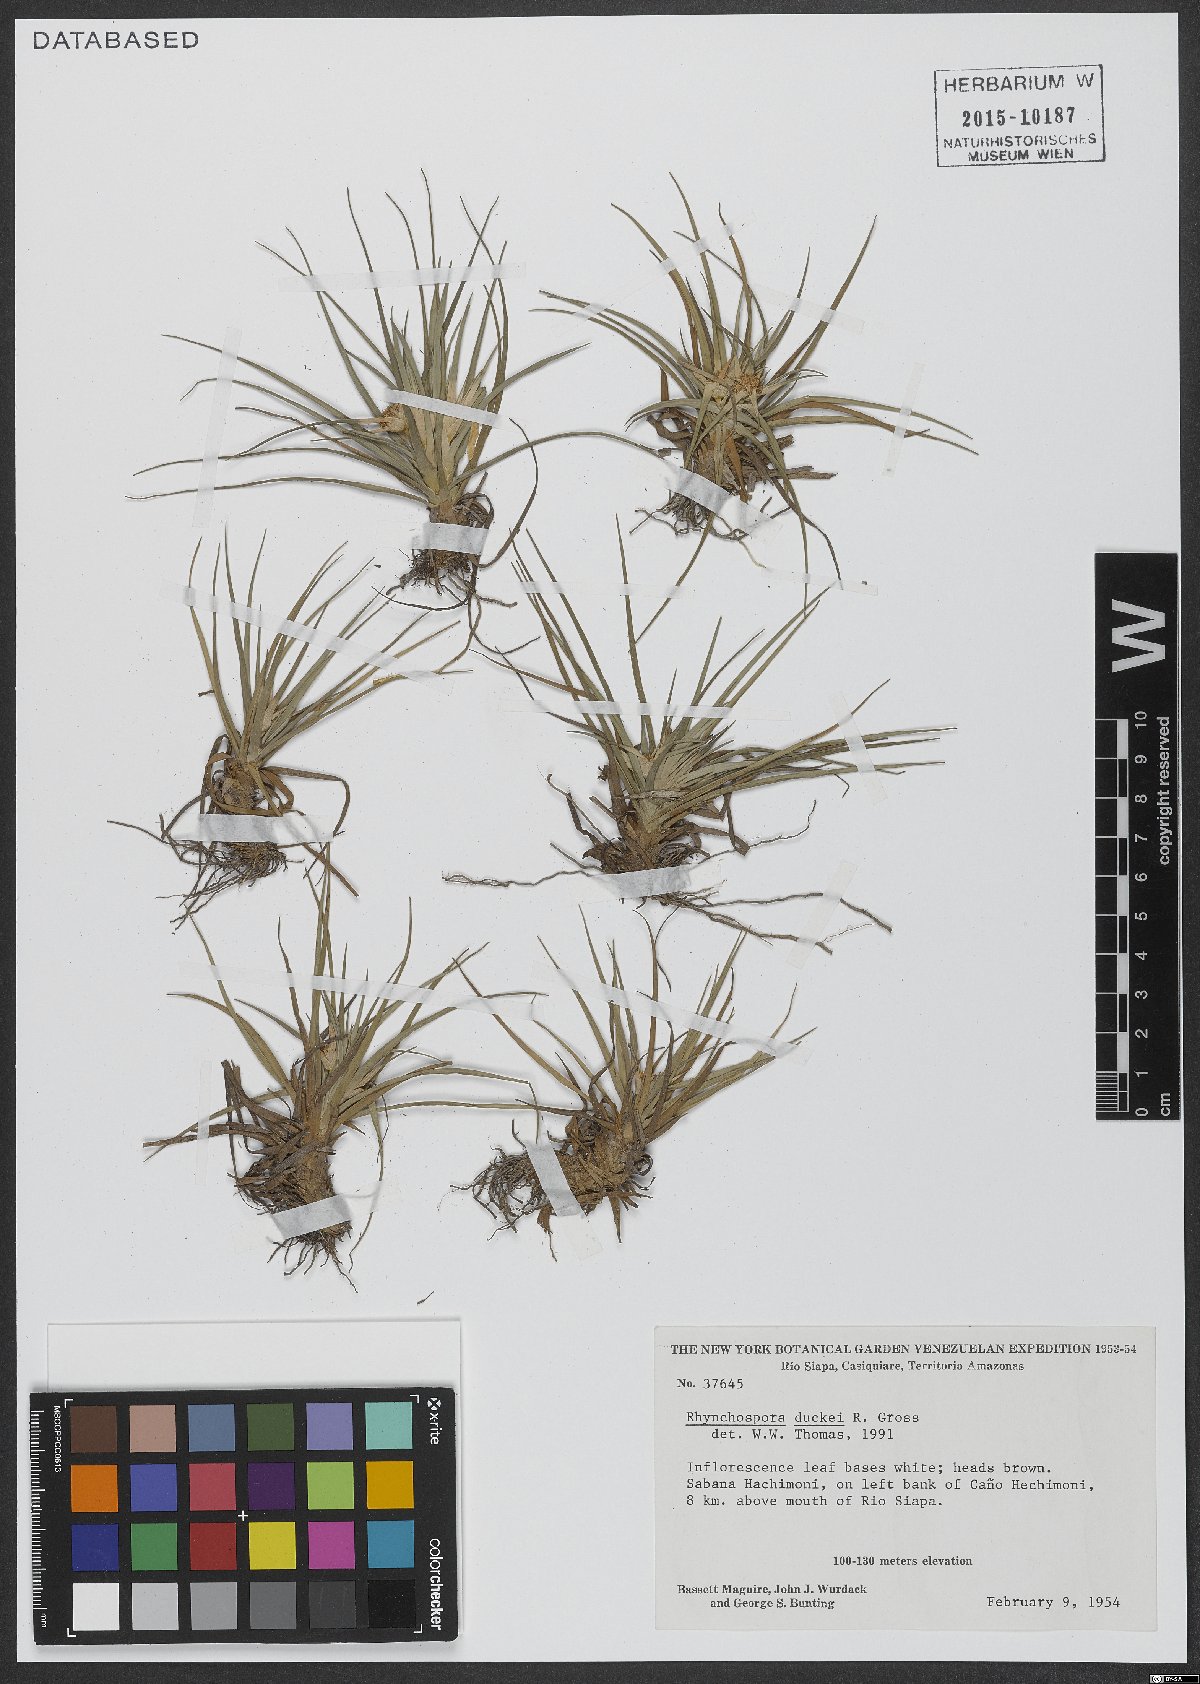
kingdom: Plantae
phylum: Tracheophyta
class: Liliopsida
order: Poales
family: Cyperaceae
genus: Rhynchospora
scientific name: Rhynchospora duckei
